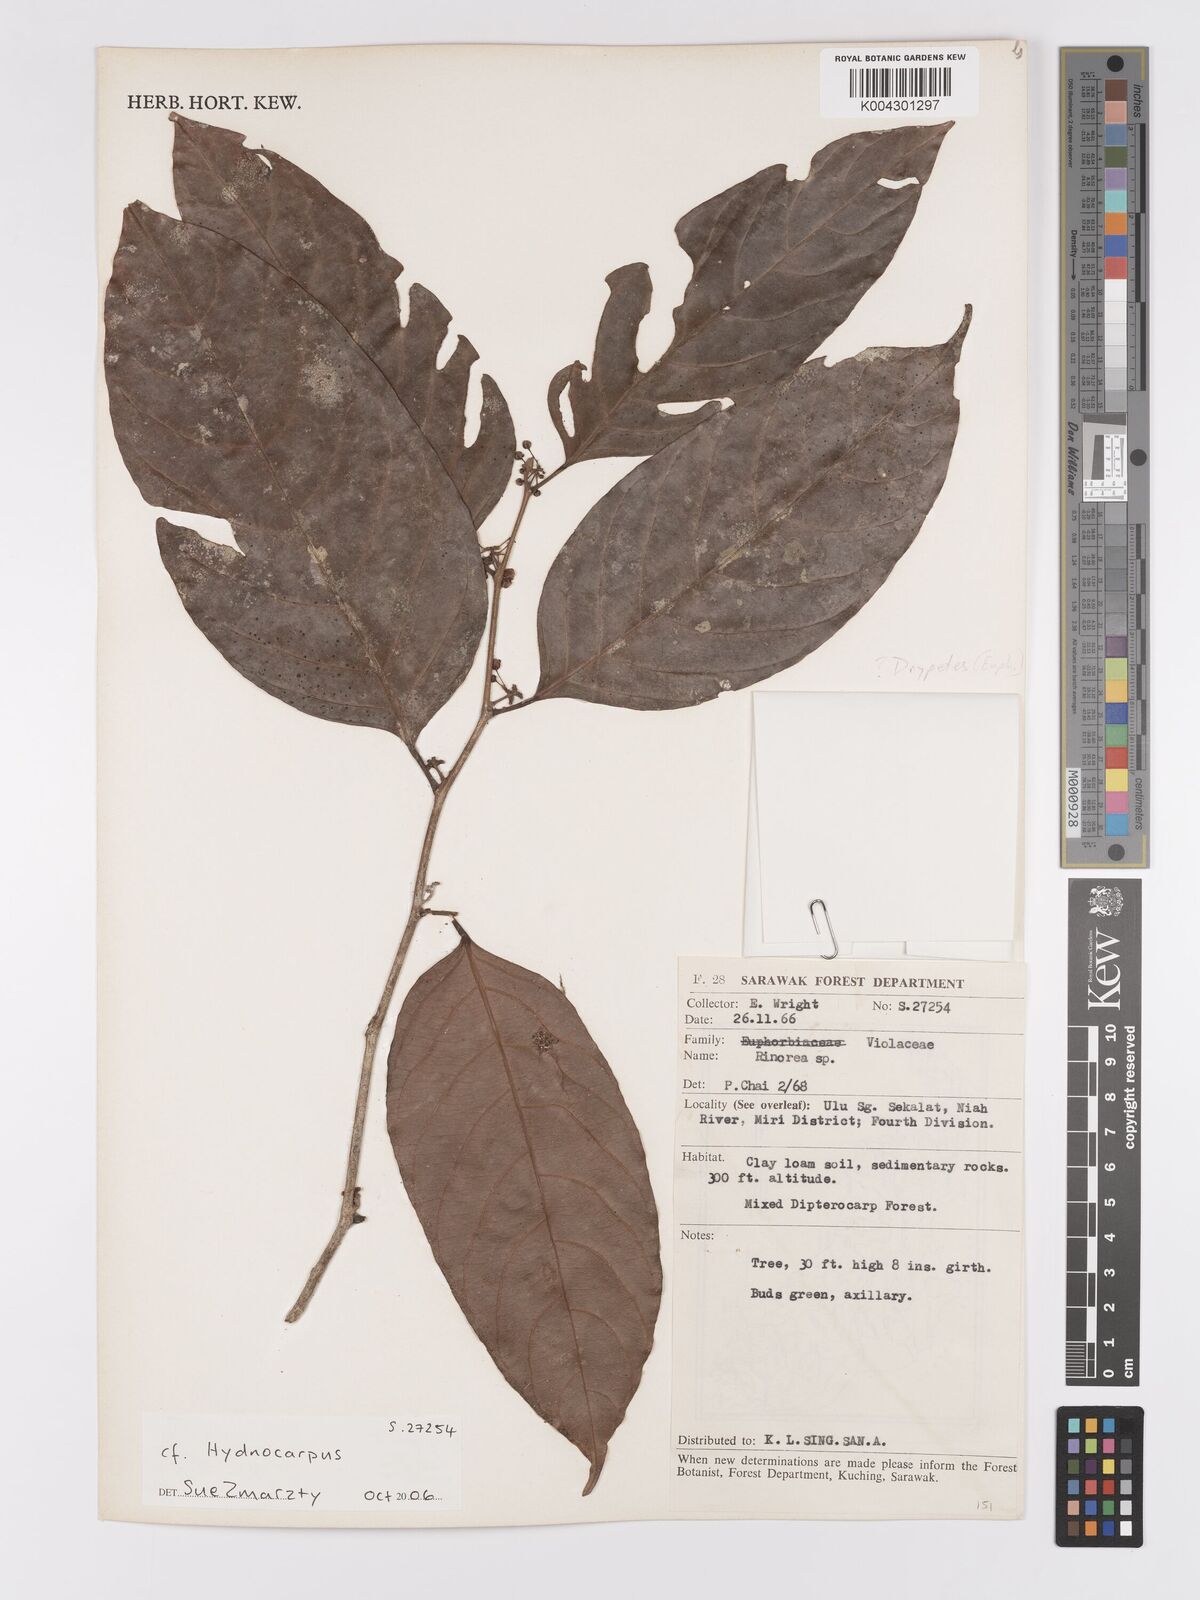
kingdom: Plantae
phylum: Tracheophyta
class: Magnoliopsida
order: Malpighiales
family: Achariaceae
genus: Hydnocarpus
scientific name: Hydnocarpus
